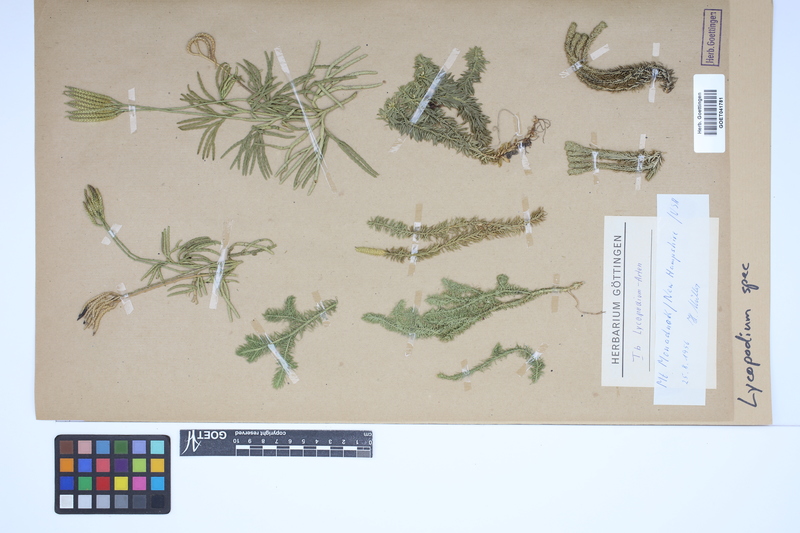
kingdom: Plantae
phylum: Tracheophyta
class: Lycopodiopsida
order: Lycopodiales
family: Lycopodiaceae
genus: Lycopodium
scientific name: Lycopodium
